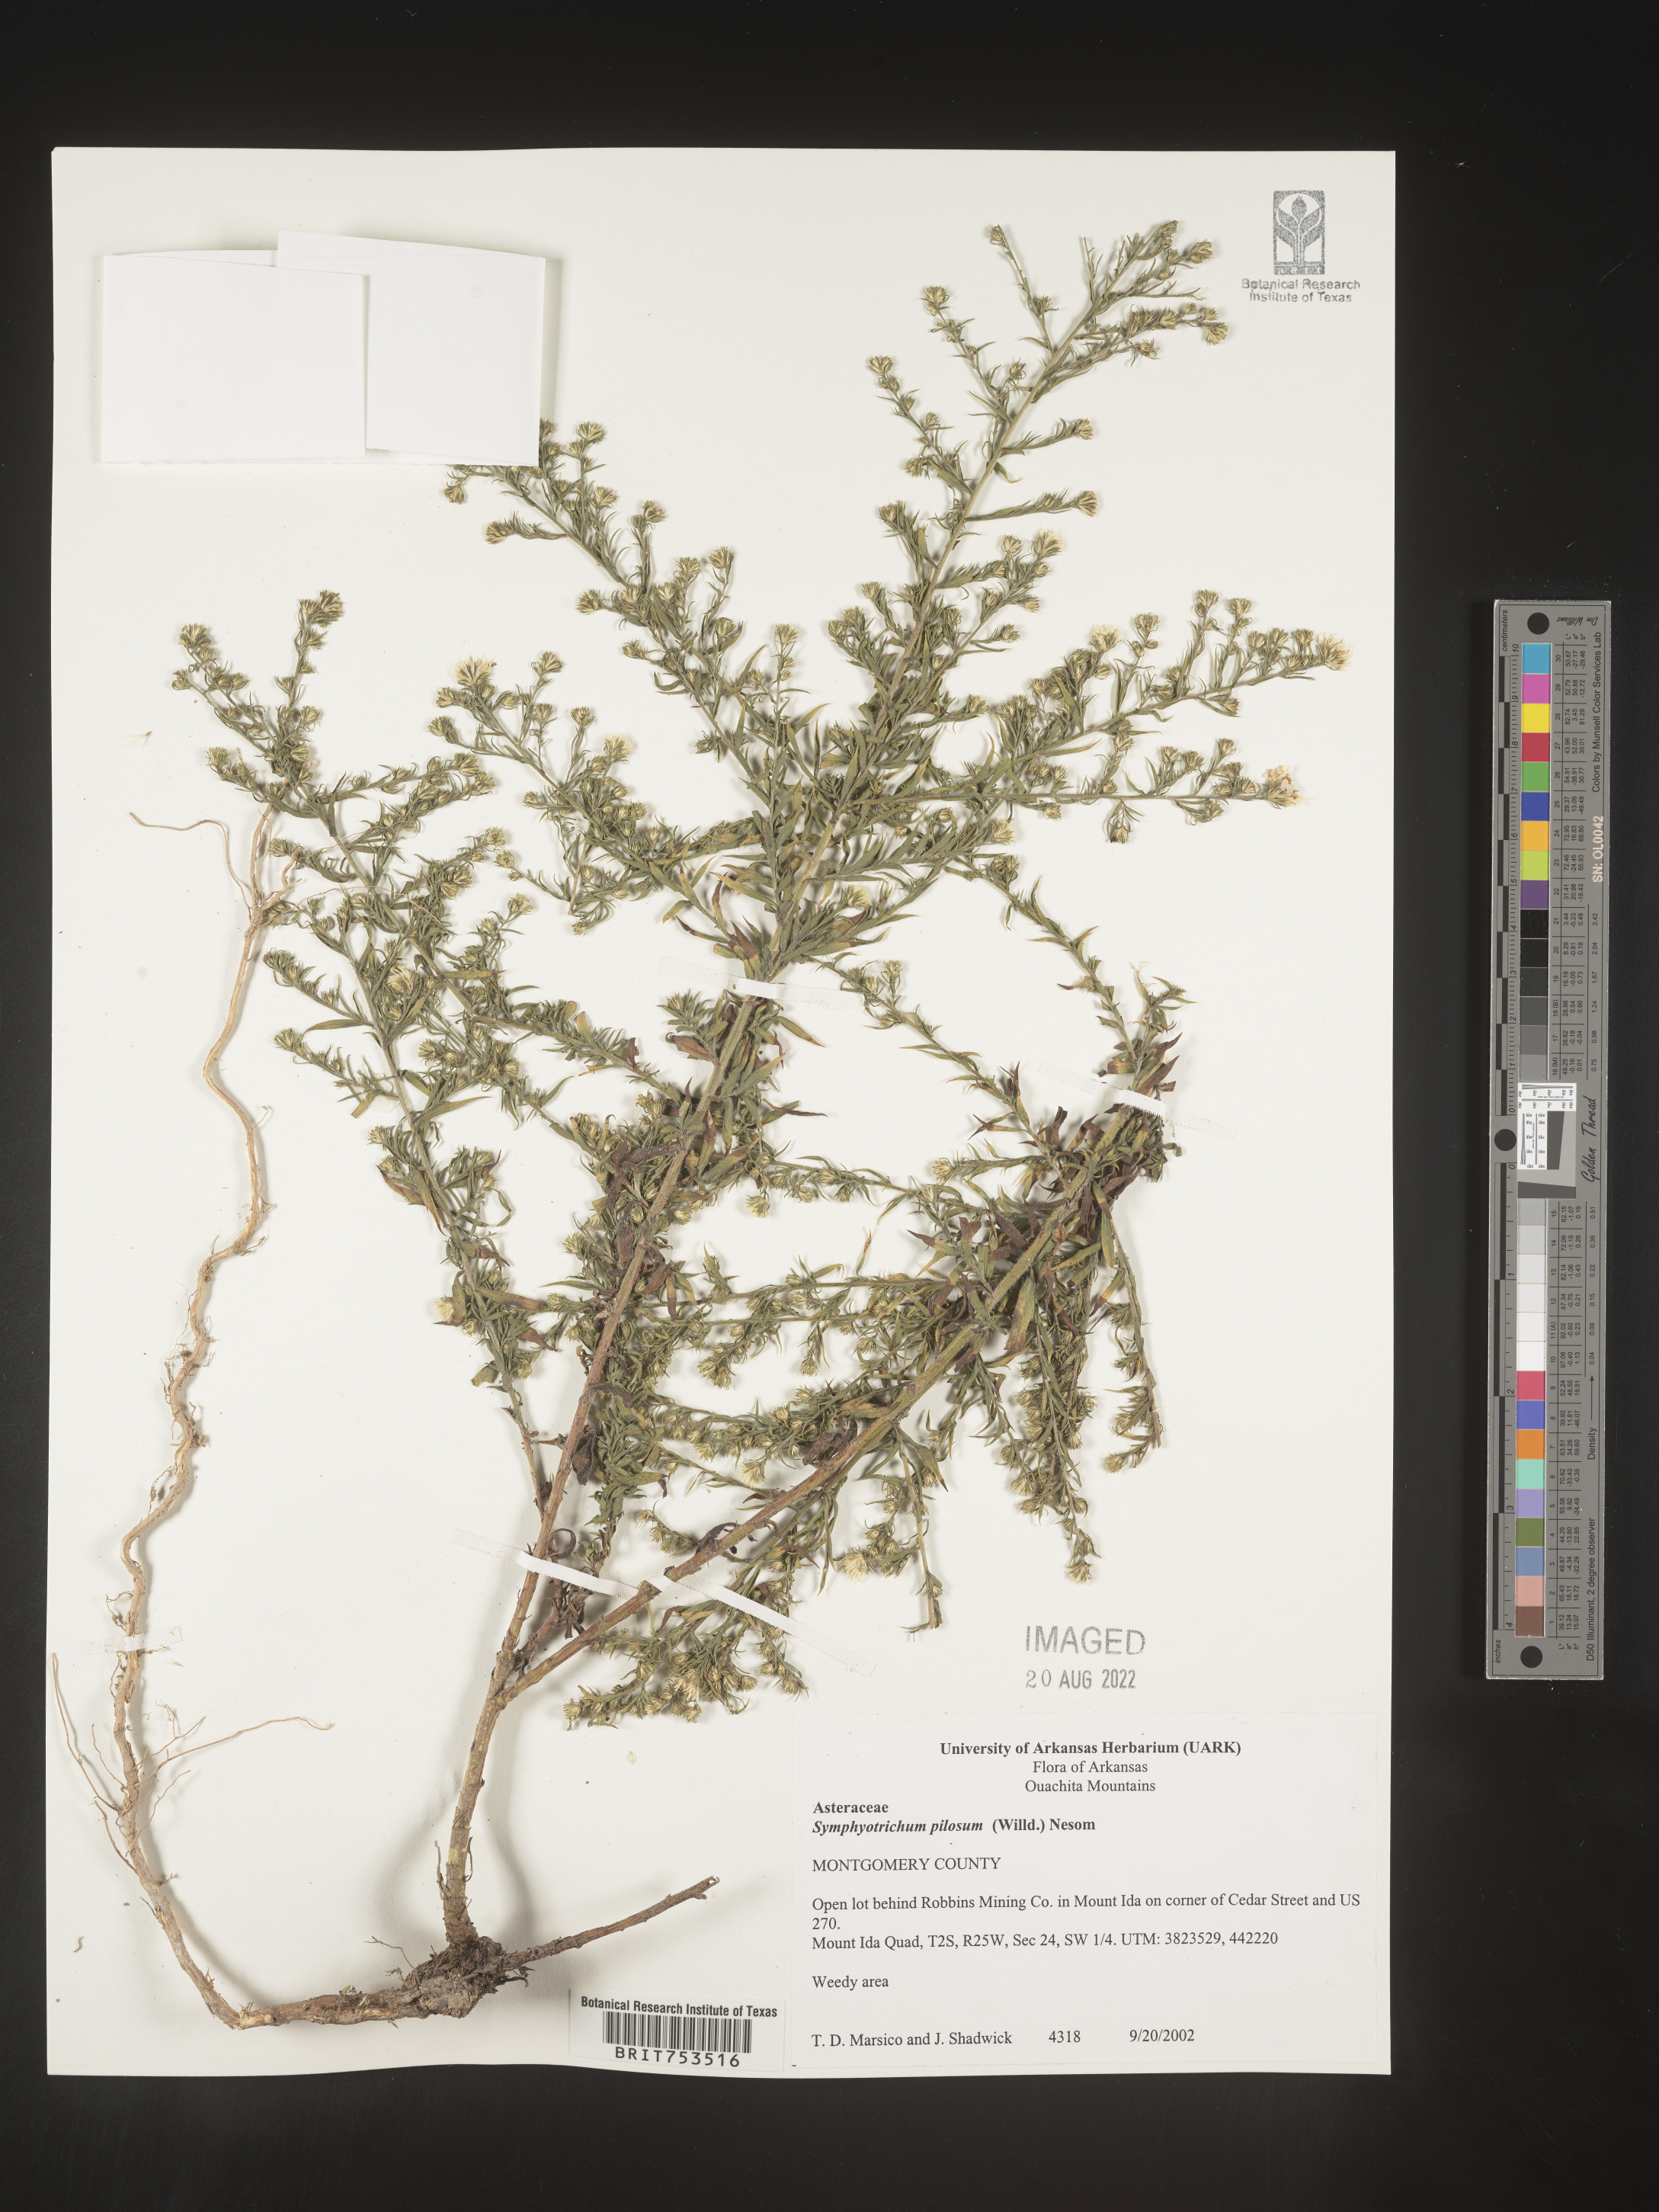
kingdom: Plantae
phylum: Tracheophyta
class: Magnoliopsida
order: Asterales
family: Asteraceae
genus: Symphyotrichum
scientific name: Symphyotrichum pilosum
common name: Awl aster
